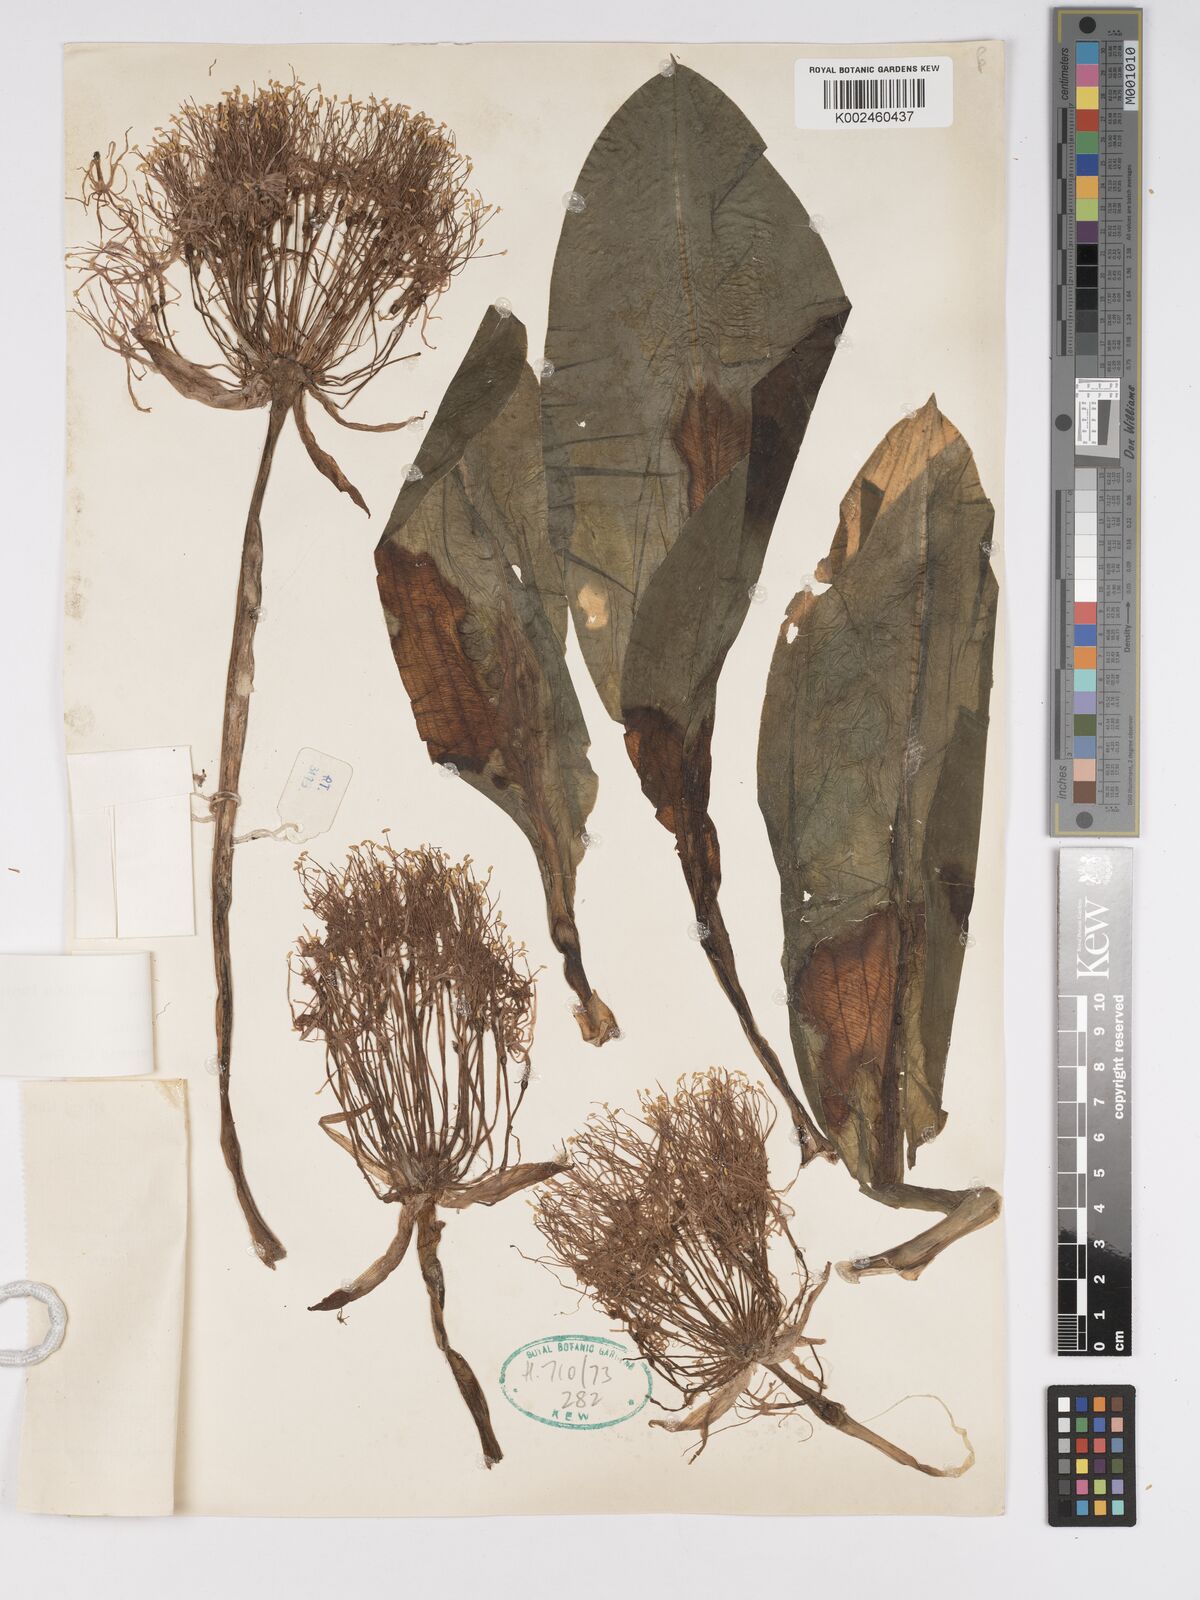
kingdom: Plantae
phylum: Tracheophyta
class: Liliopsida
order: Asparagales
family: Amaryllidaceae
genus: Scadoxus
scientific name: Scadoxus multiflorus
